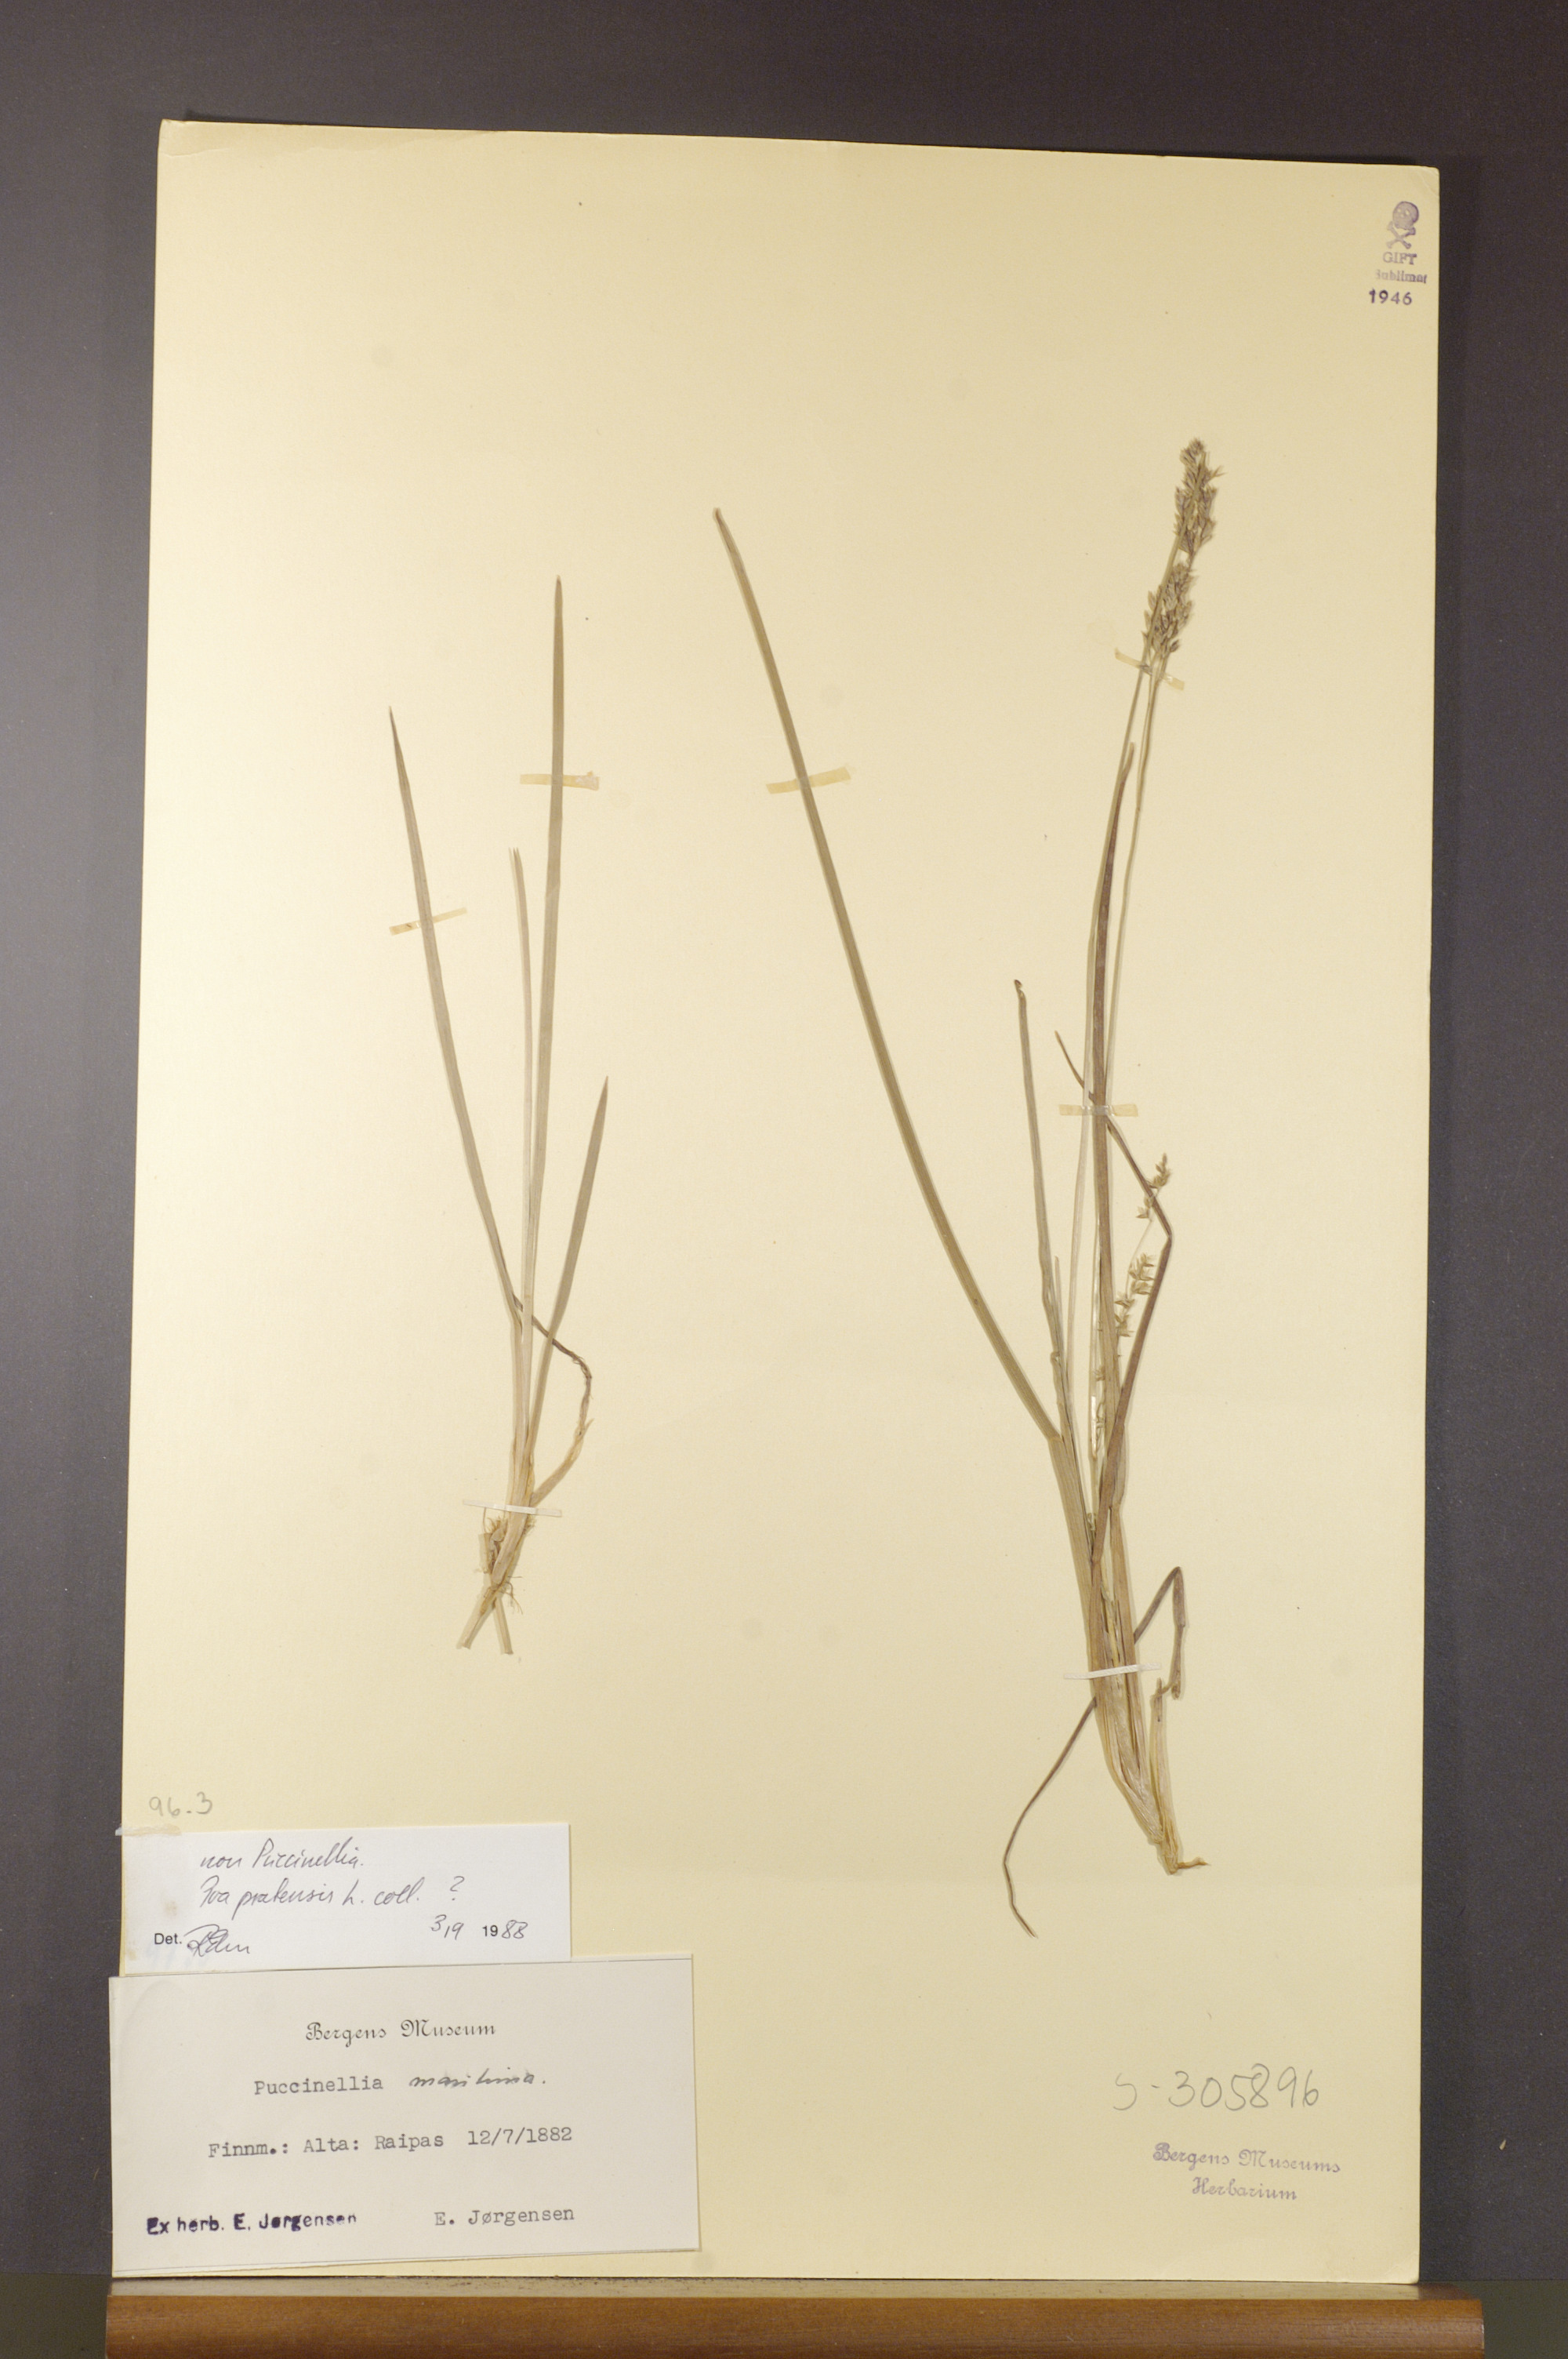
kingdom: Plantae
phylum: Tracheophyta
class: Liliopsida
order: Poales
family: Poaceae
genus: Poa
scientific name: Poa pratensis
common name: Kentucky bluegrass
